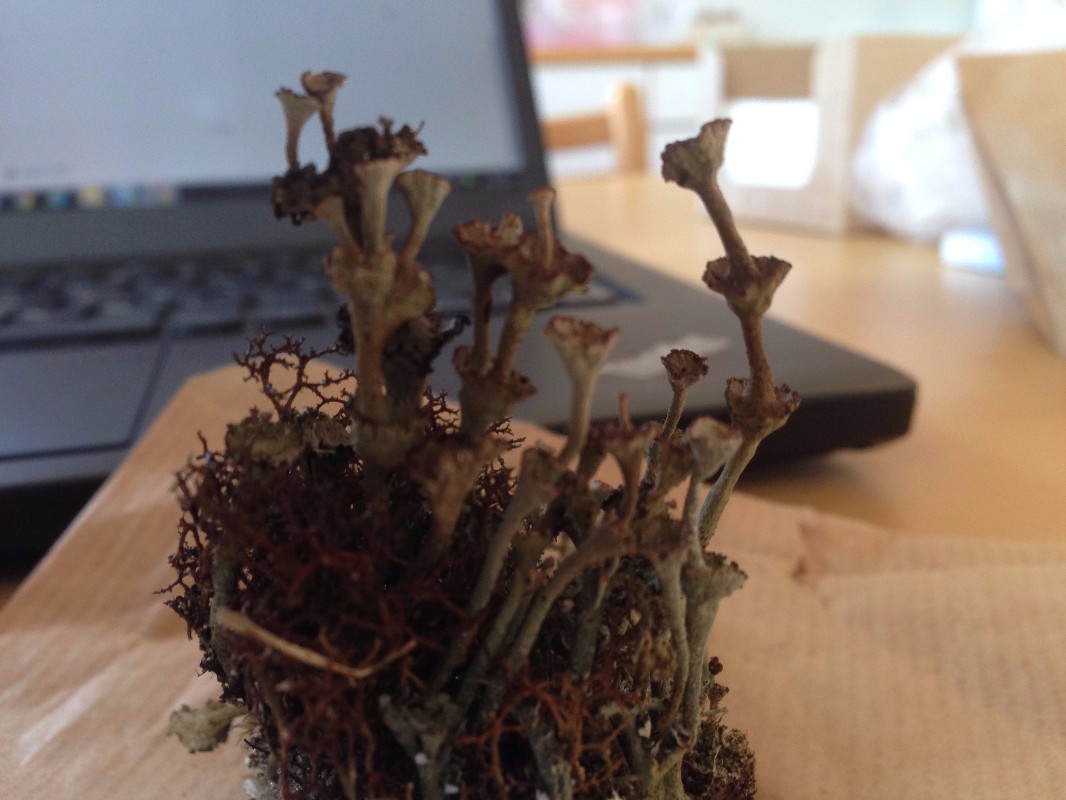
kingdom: Fungi
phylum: Ascomycota
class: Lecanoromycetes
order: Lecanorales
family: Cladoniaceae
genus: Cladonia
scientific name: Cladonia cervicornis
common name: etage-bægerlav
